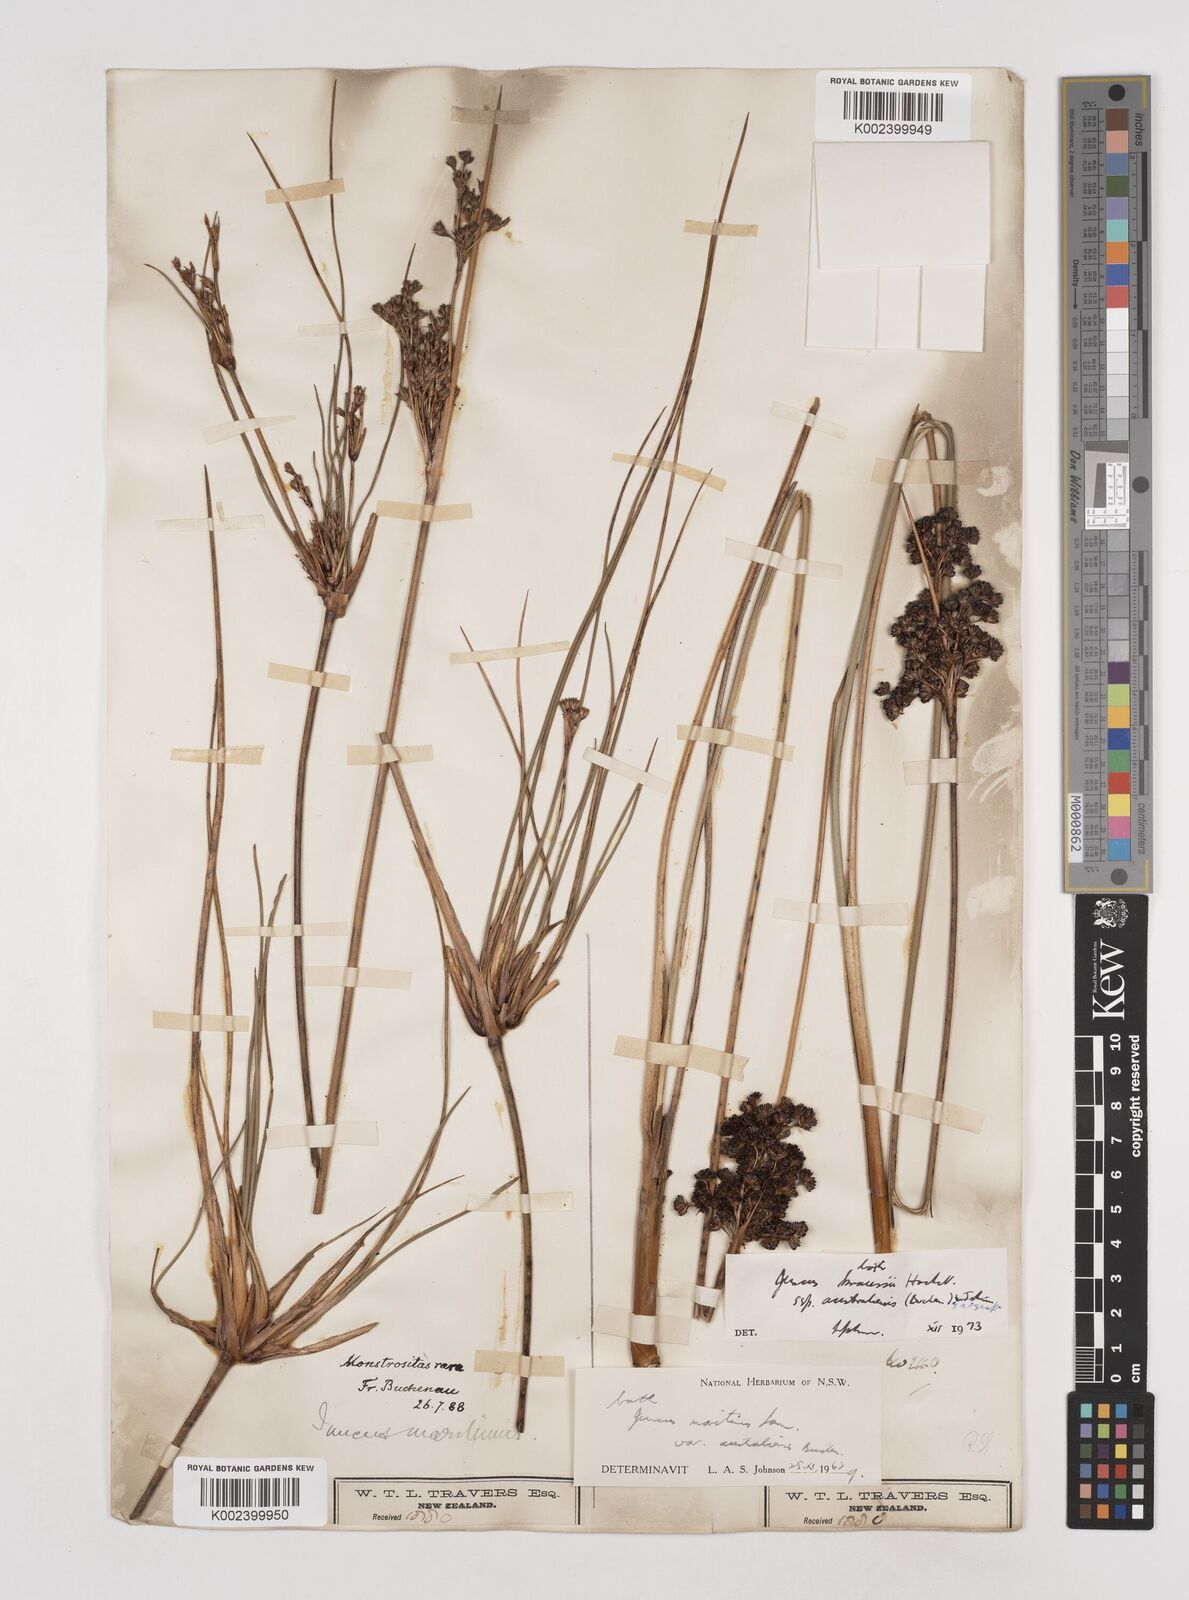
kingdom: Plantae
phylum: Tracheophyta
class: Liliopsida
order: Poales
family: Juncaceae
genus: Juncus
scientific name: Juncus kraussii
